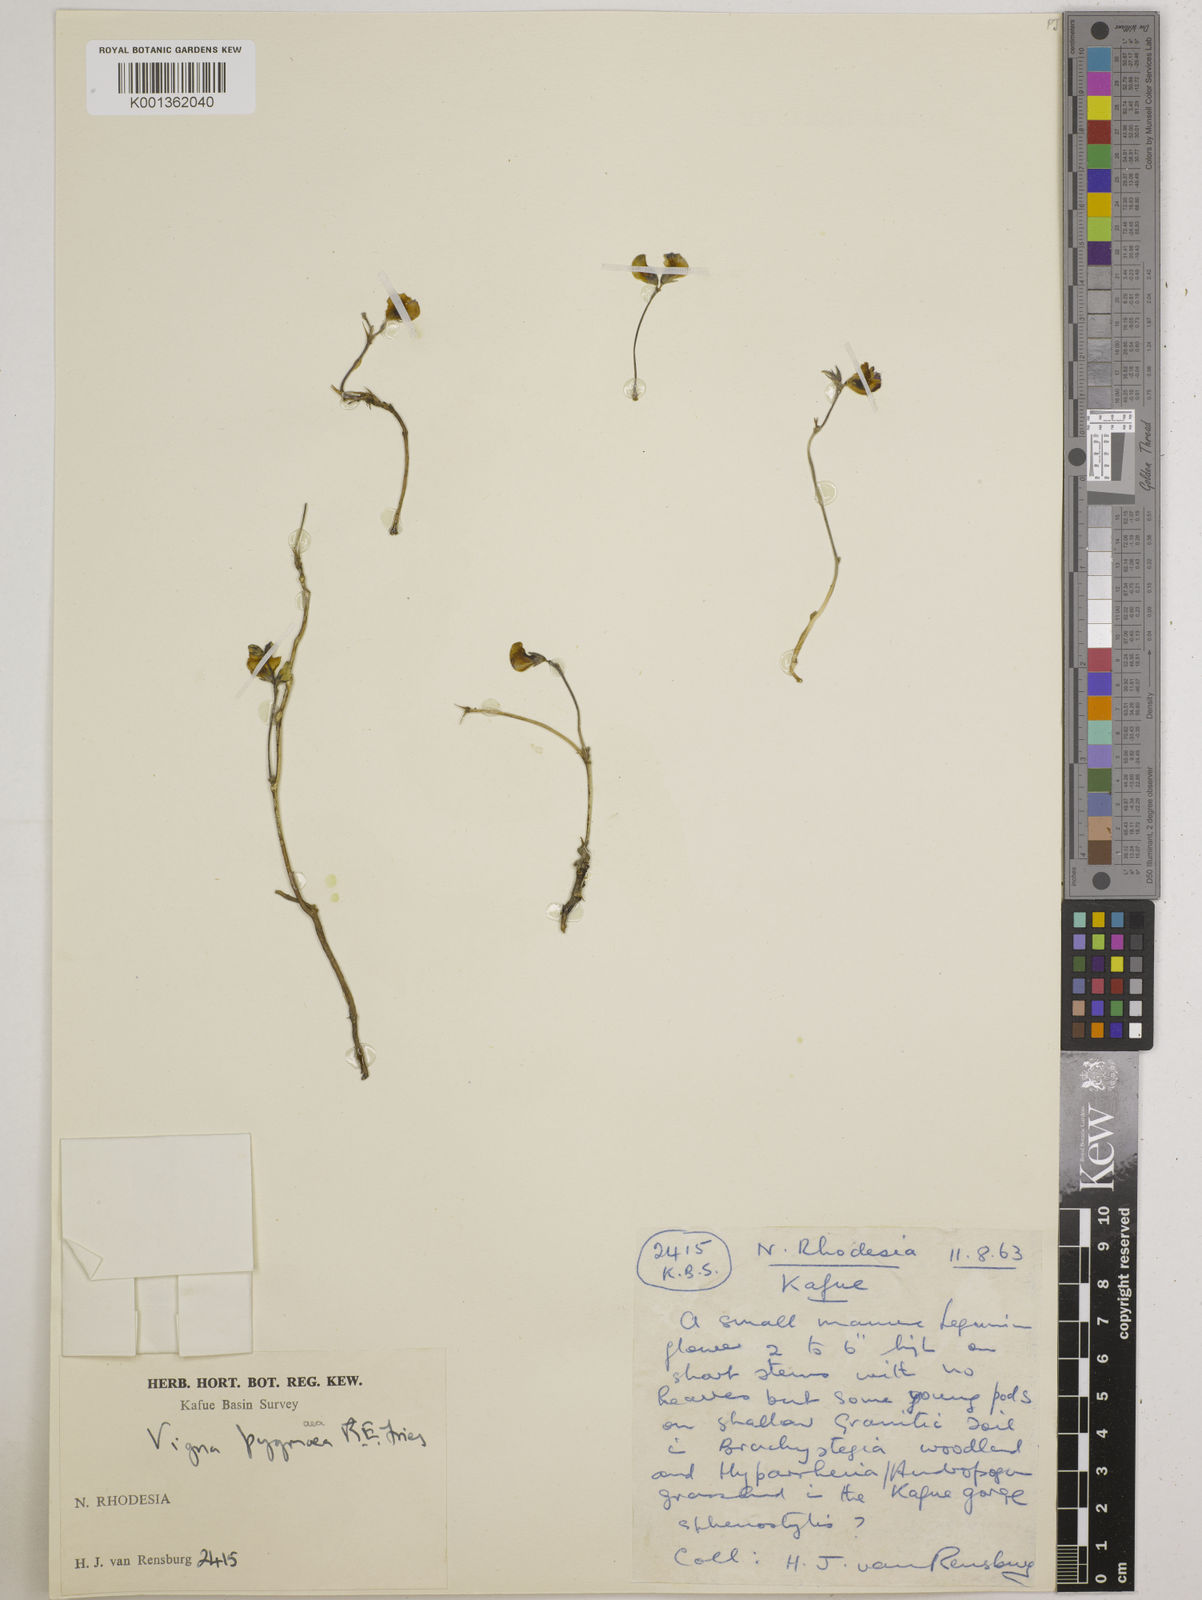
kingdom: Plantae
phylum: Tracheophyta
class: Magnoliopsida
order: Fabales
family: Fabaceae
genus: Vigna
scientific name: Vigna pygmaea
